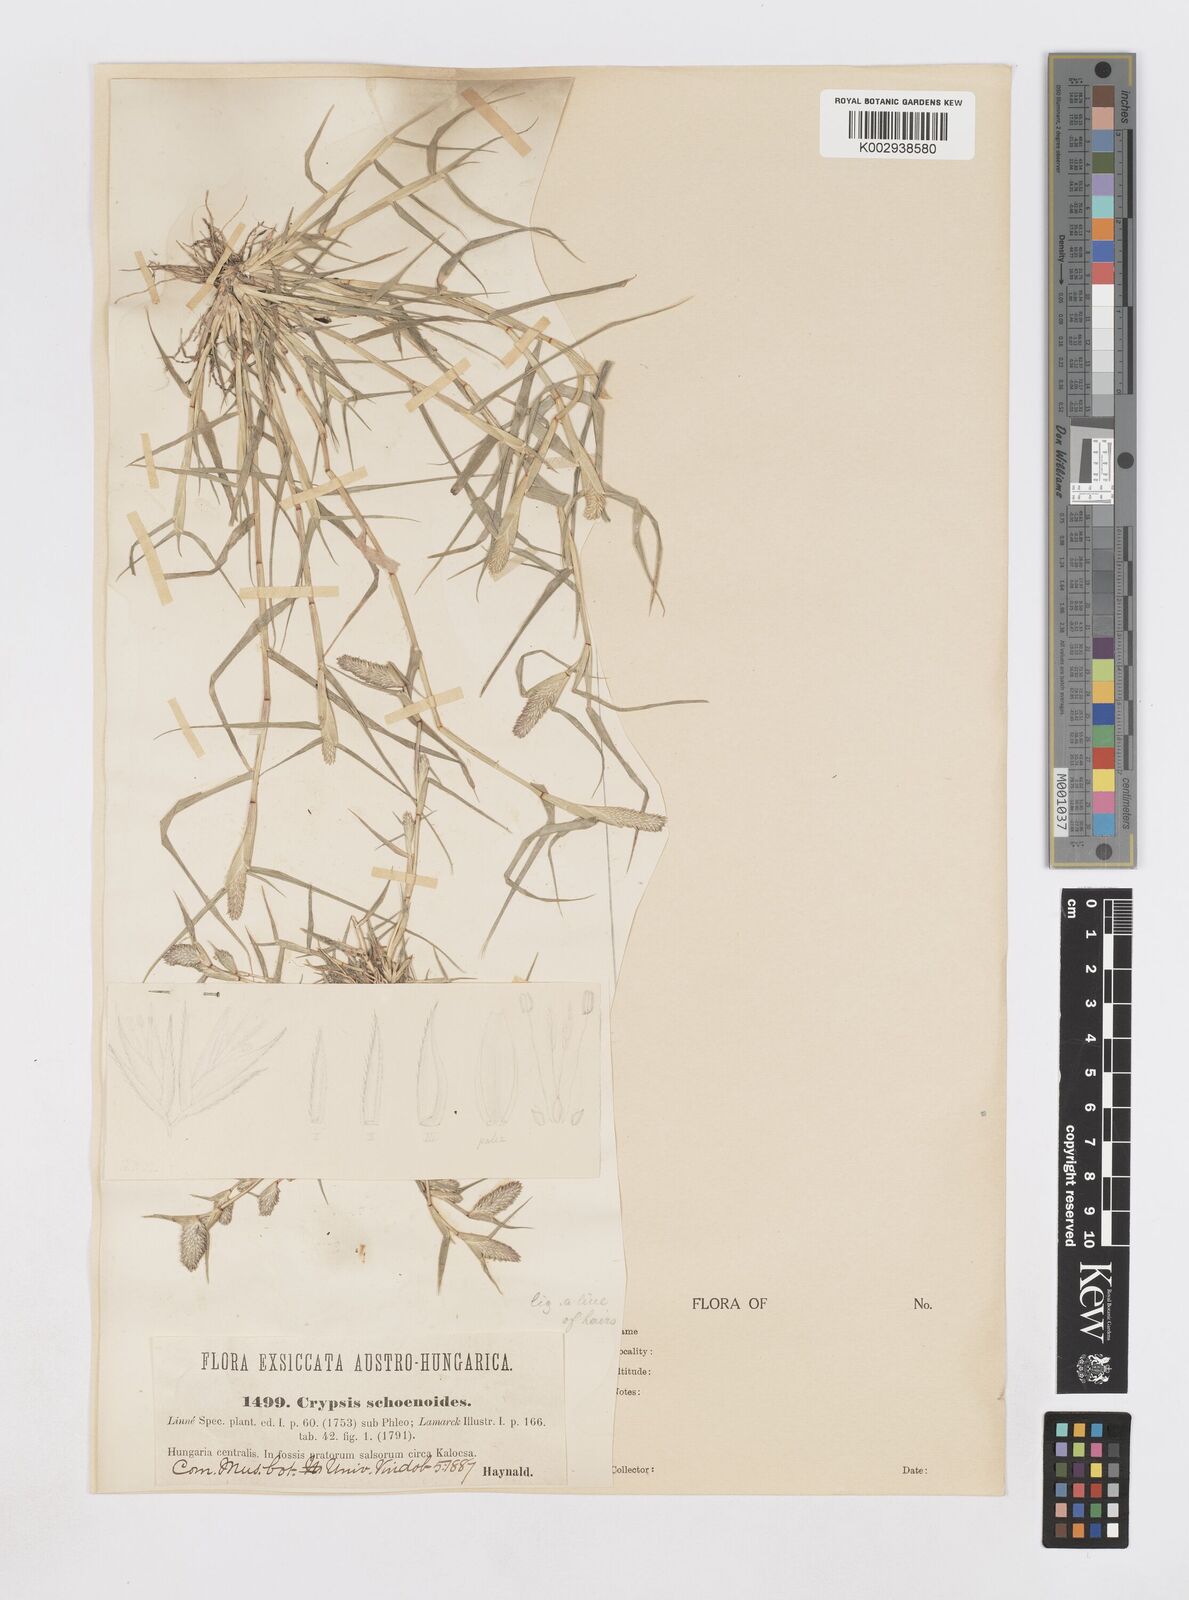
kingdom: Animalia
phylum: Arthropoda
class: Insecta
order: Coleoptera
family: Tenebrionidae
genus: Crypsis
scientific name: Crypsis
